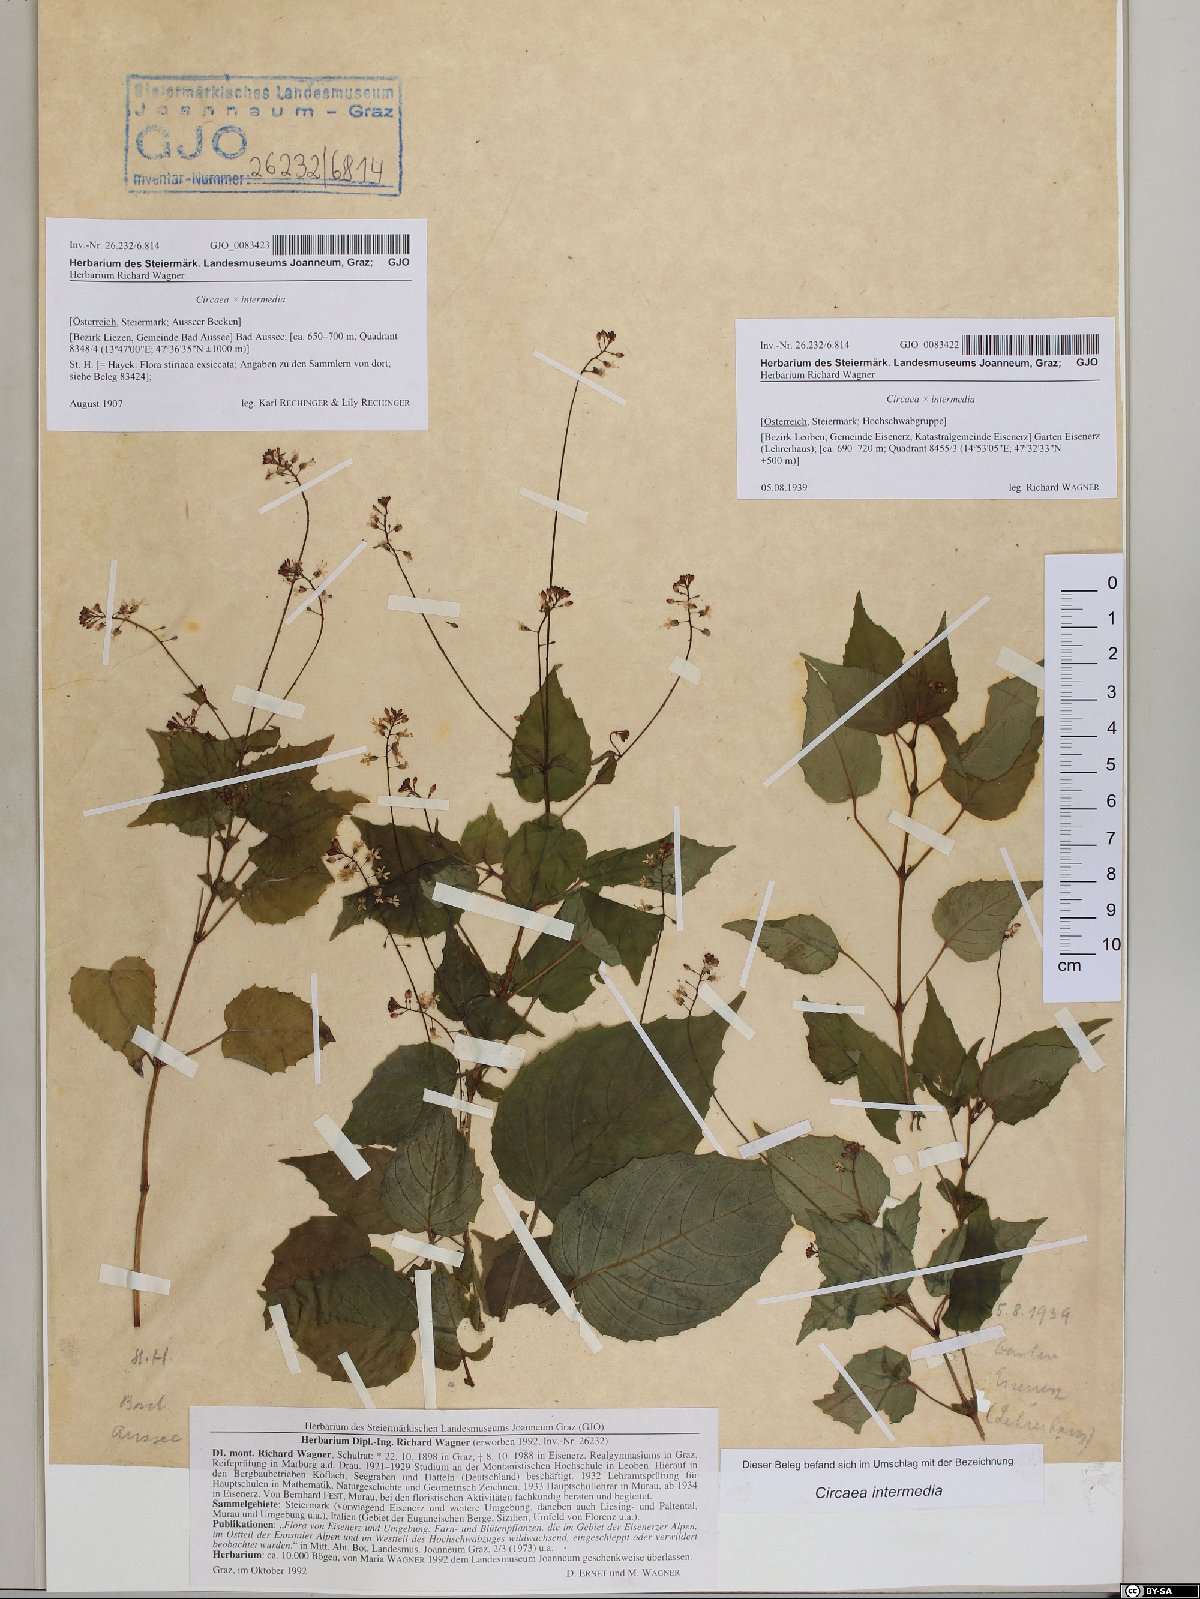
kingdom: Plantae
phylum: Tracheophyta
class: Magnoliopsida
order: Myrtales
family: Onagraceae
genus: Circaea
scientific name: Circaea intermedia
